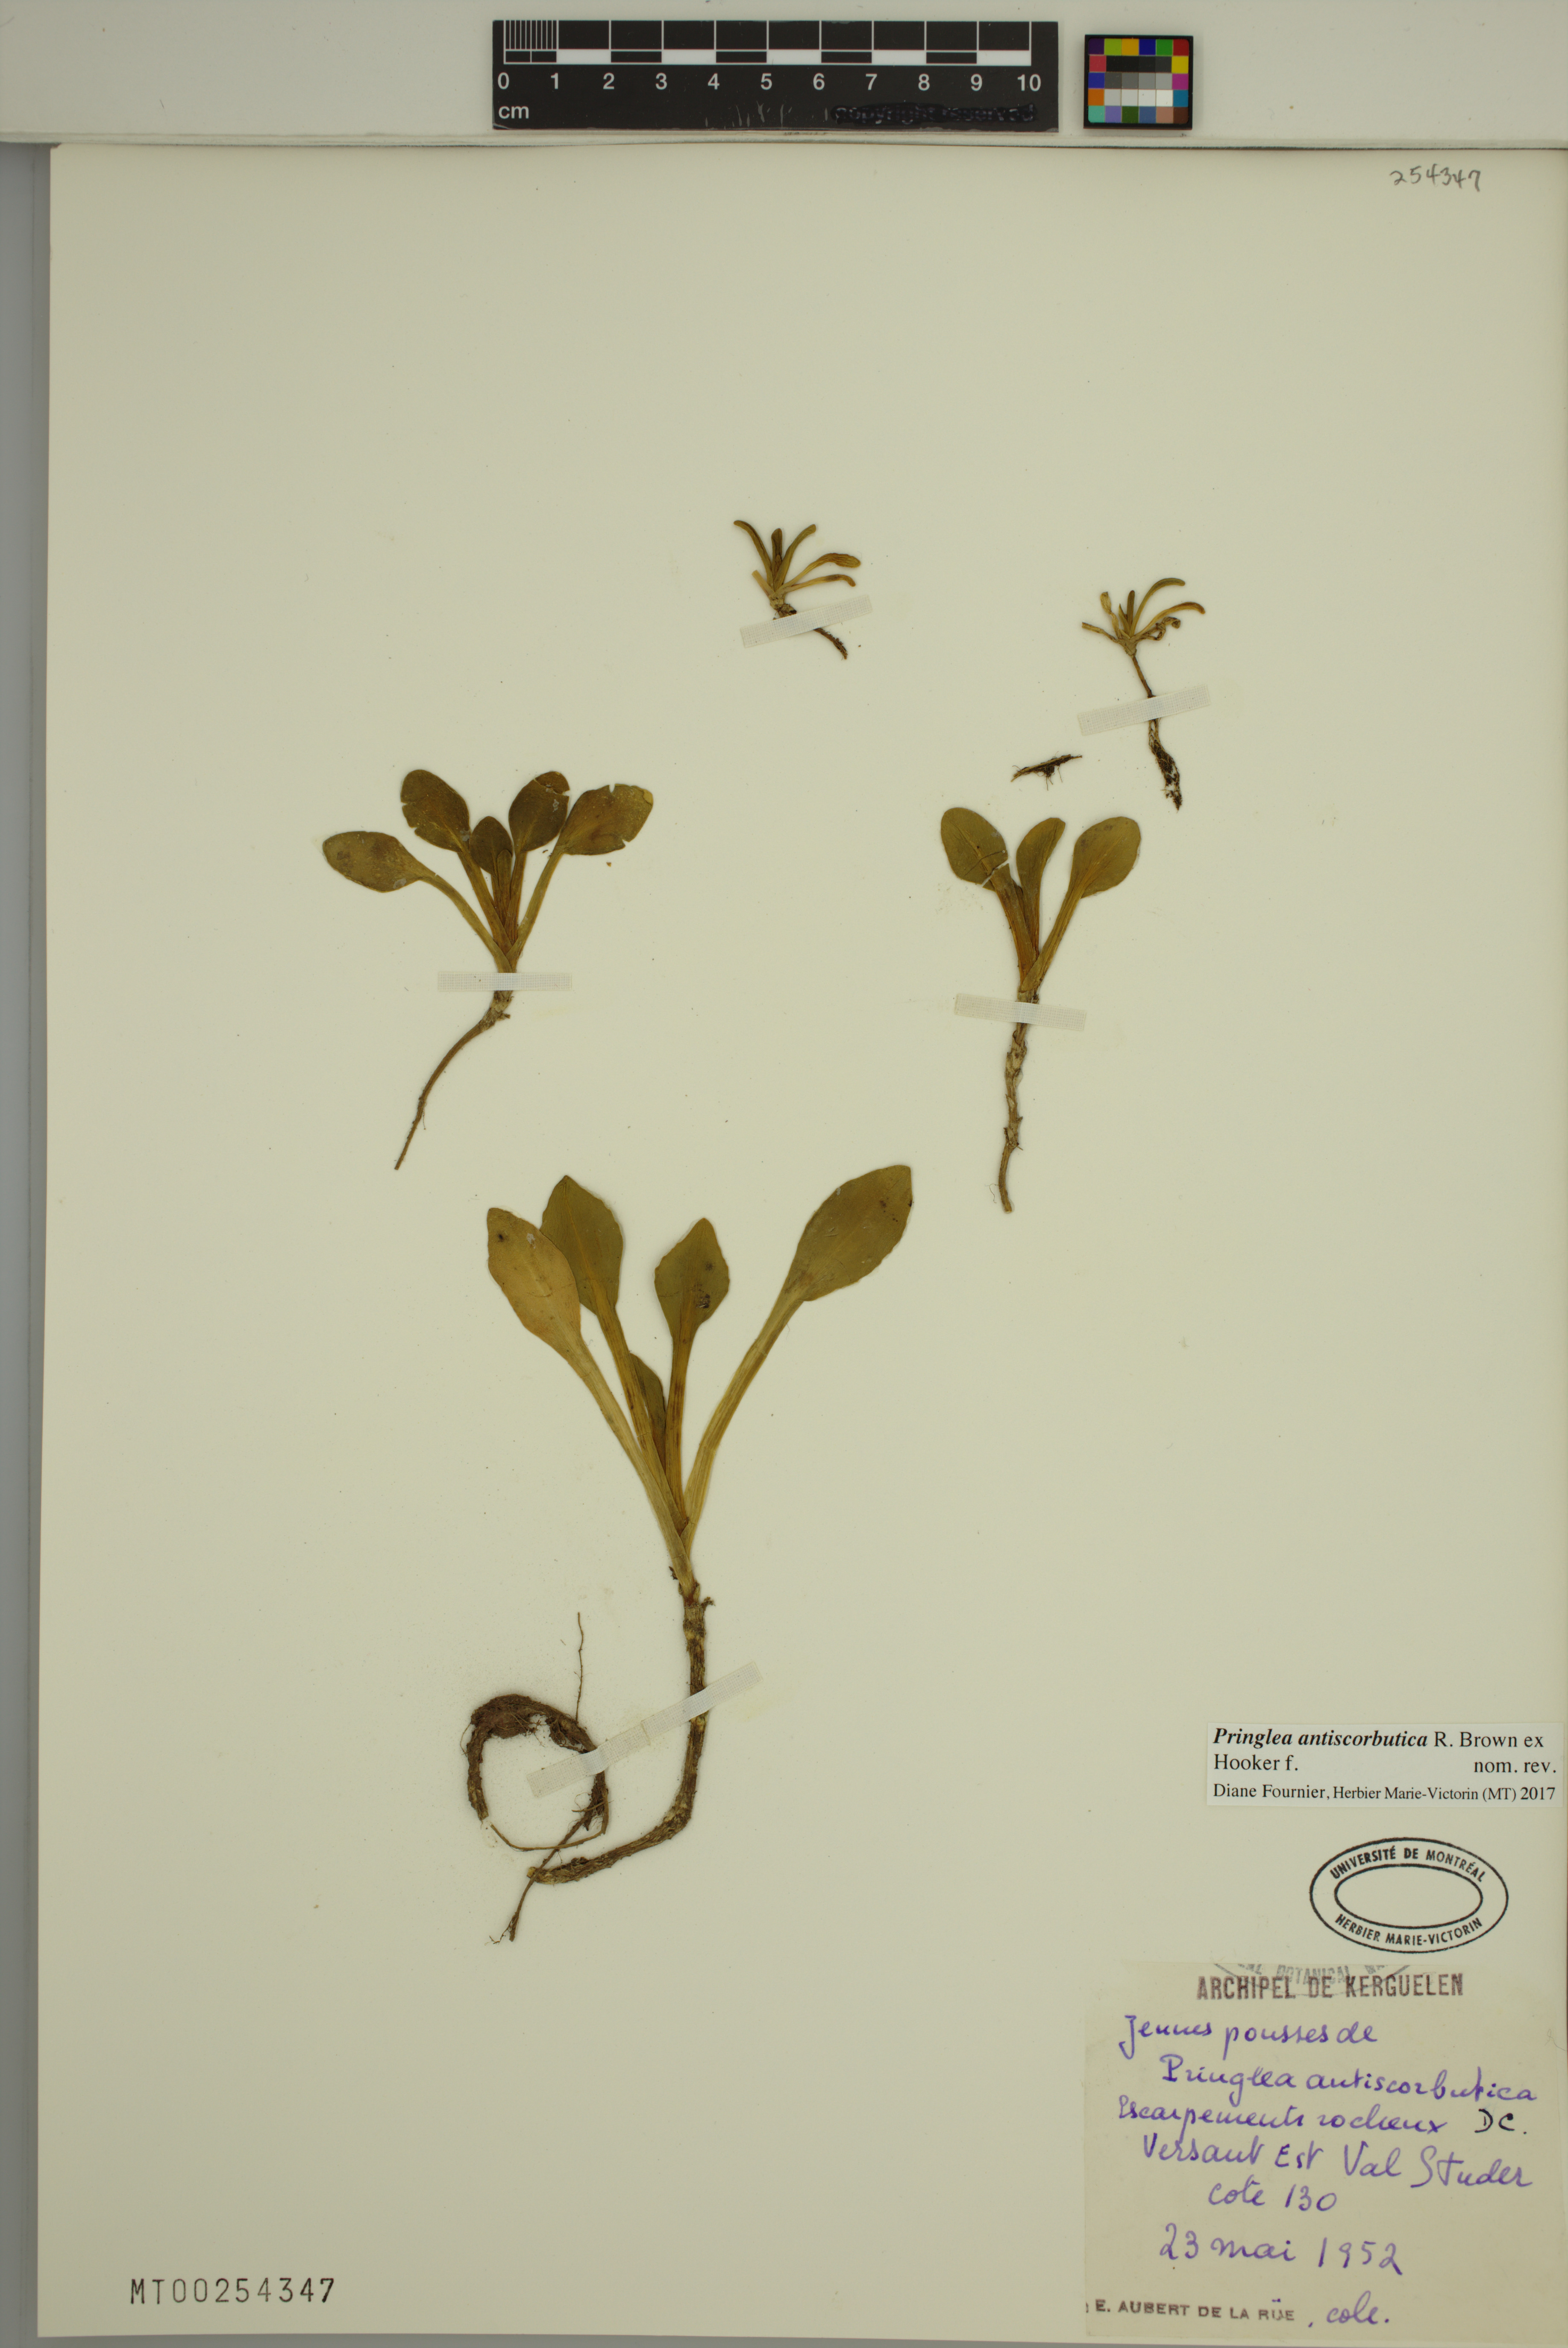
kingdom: Plantae
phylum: Tracheophyta
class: Magnoliopsida
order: Brassicales
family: Brassicaceae
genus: Pringlea
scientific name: Pringlea antiscorbutica
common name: Kerguelen-cabbage
